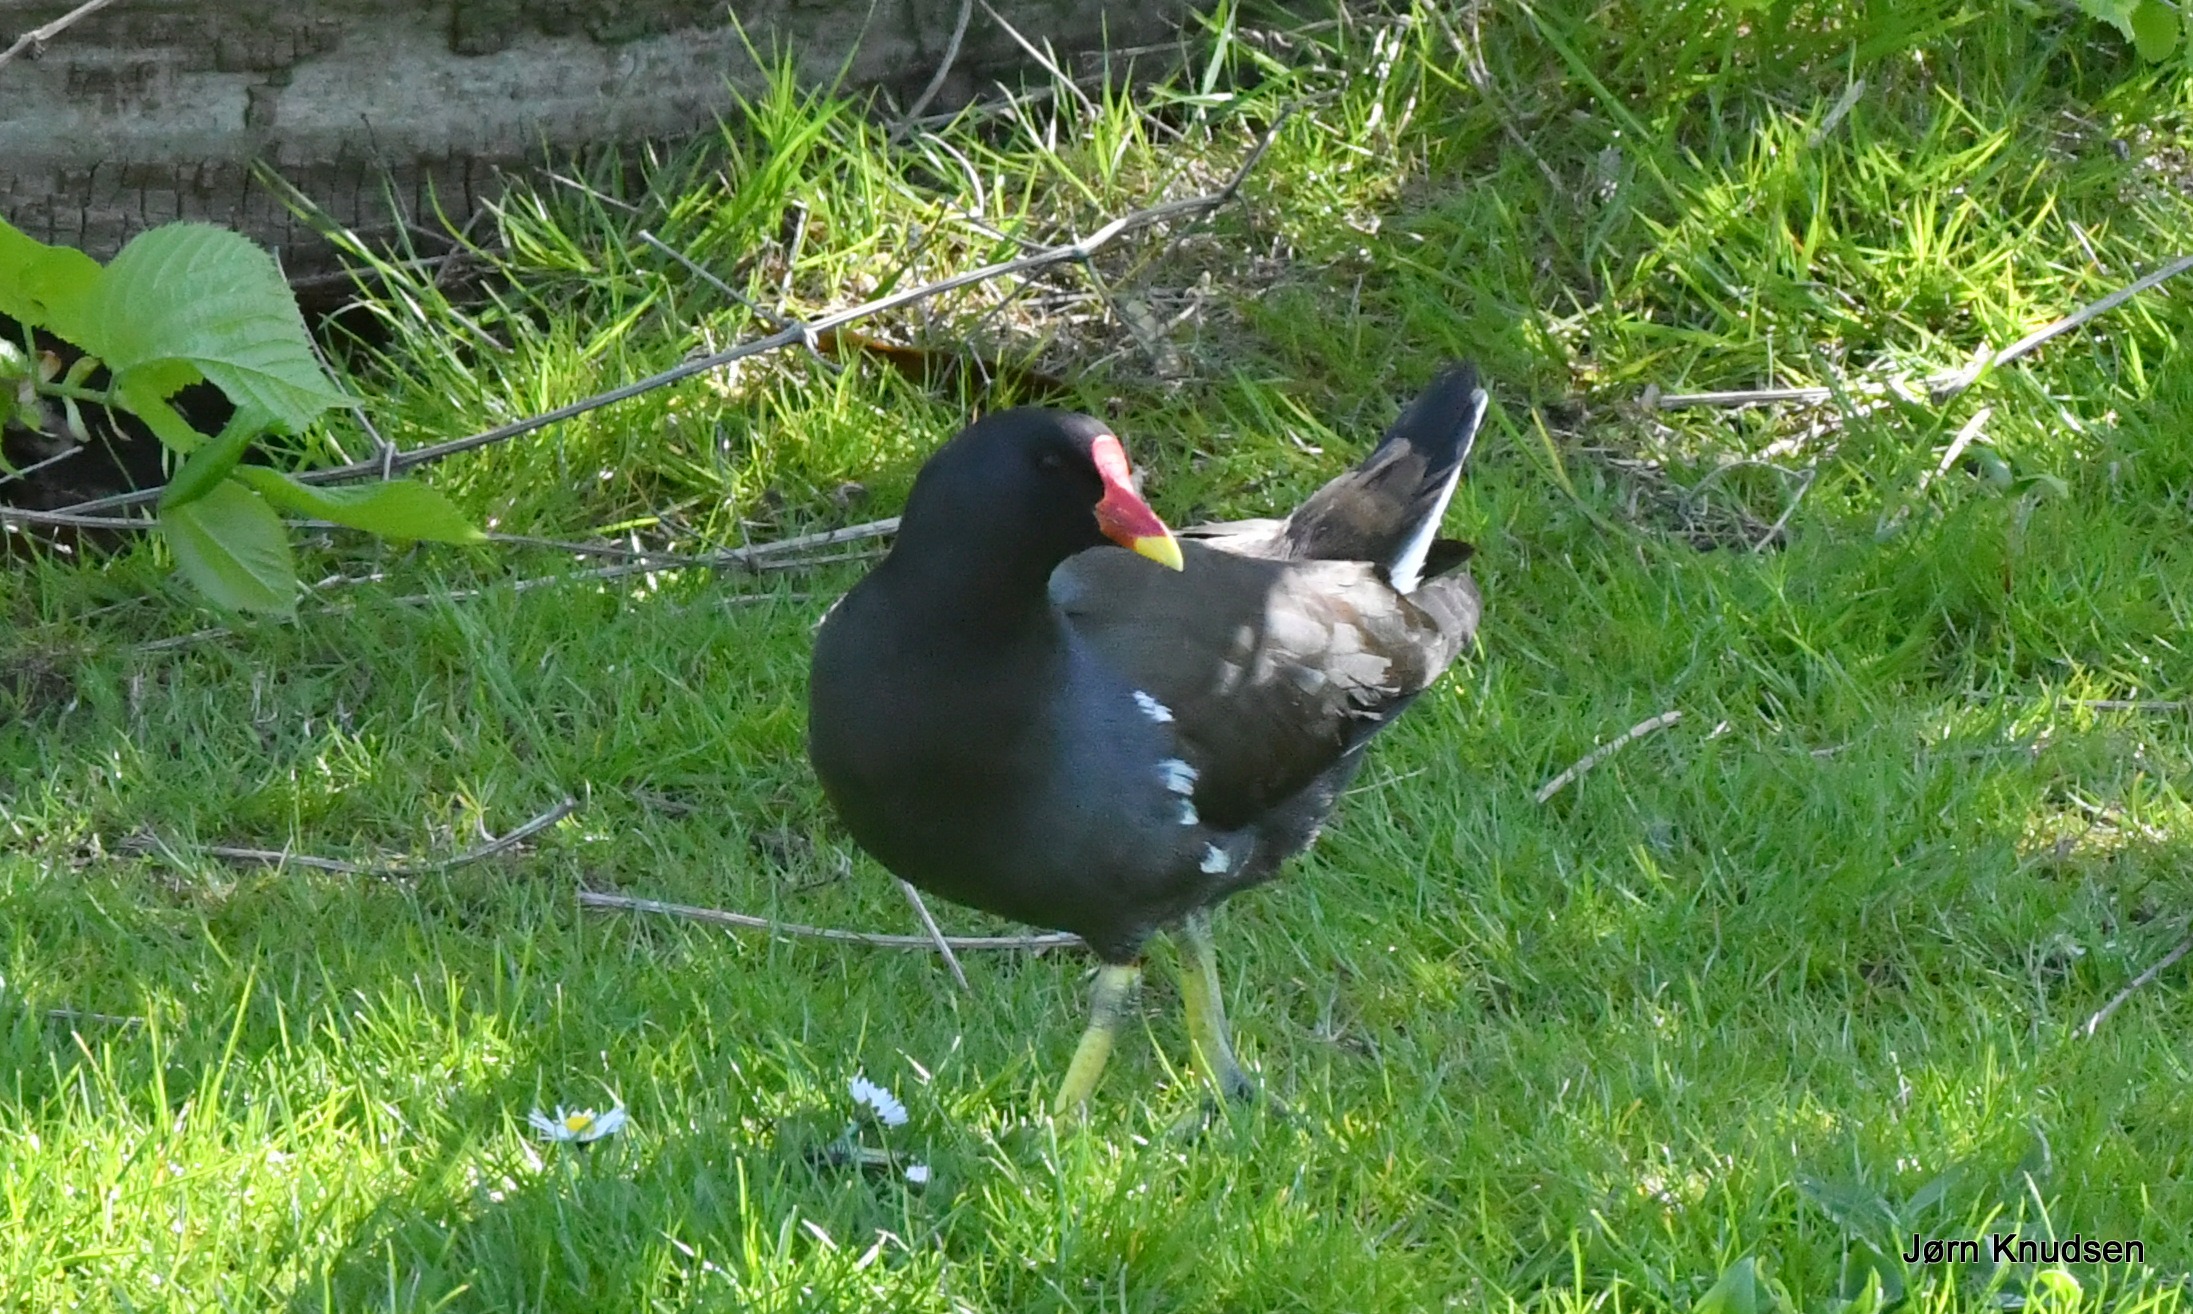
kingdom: Animalia
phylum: Chordata
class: Aves
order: Gruiformes
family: Rallidae
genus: Gallinula
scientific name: Gallinula chloropus
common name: Grønbenet rørhøne
